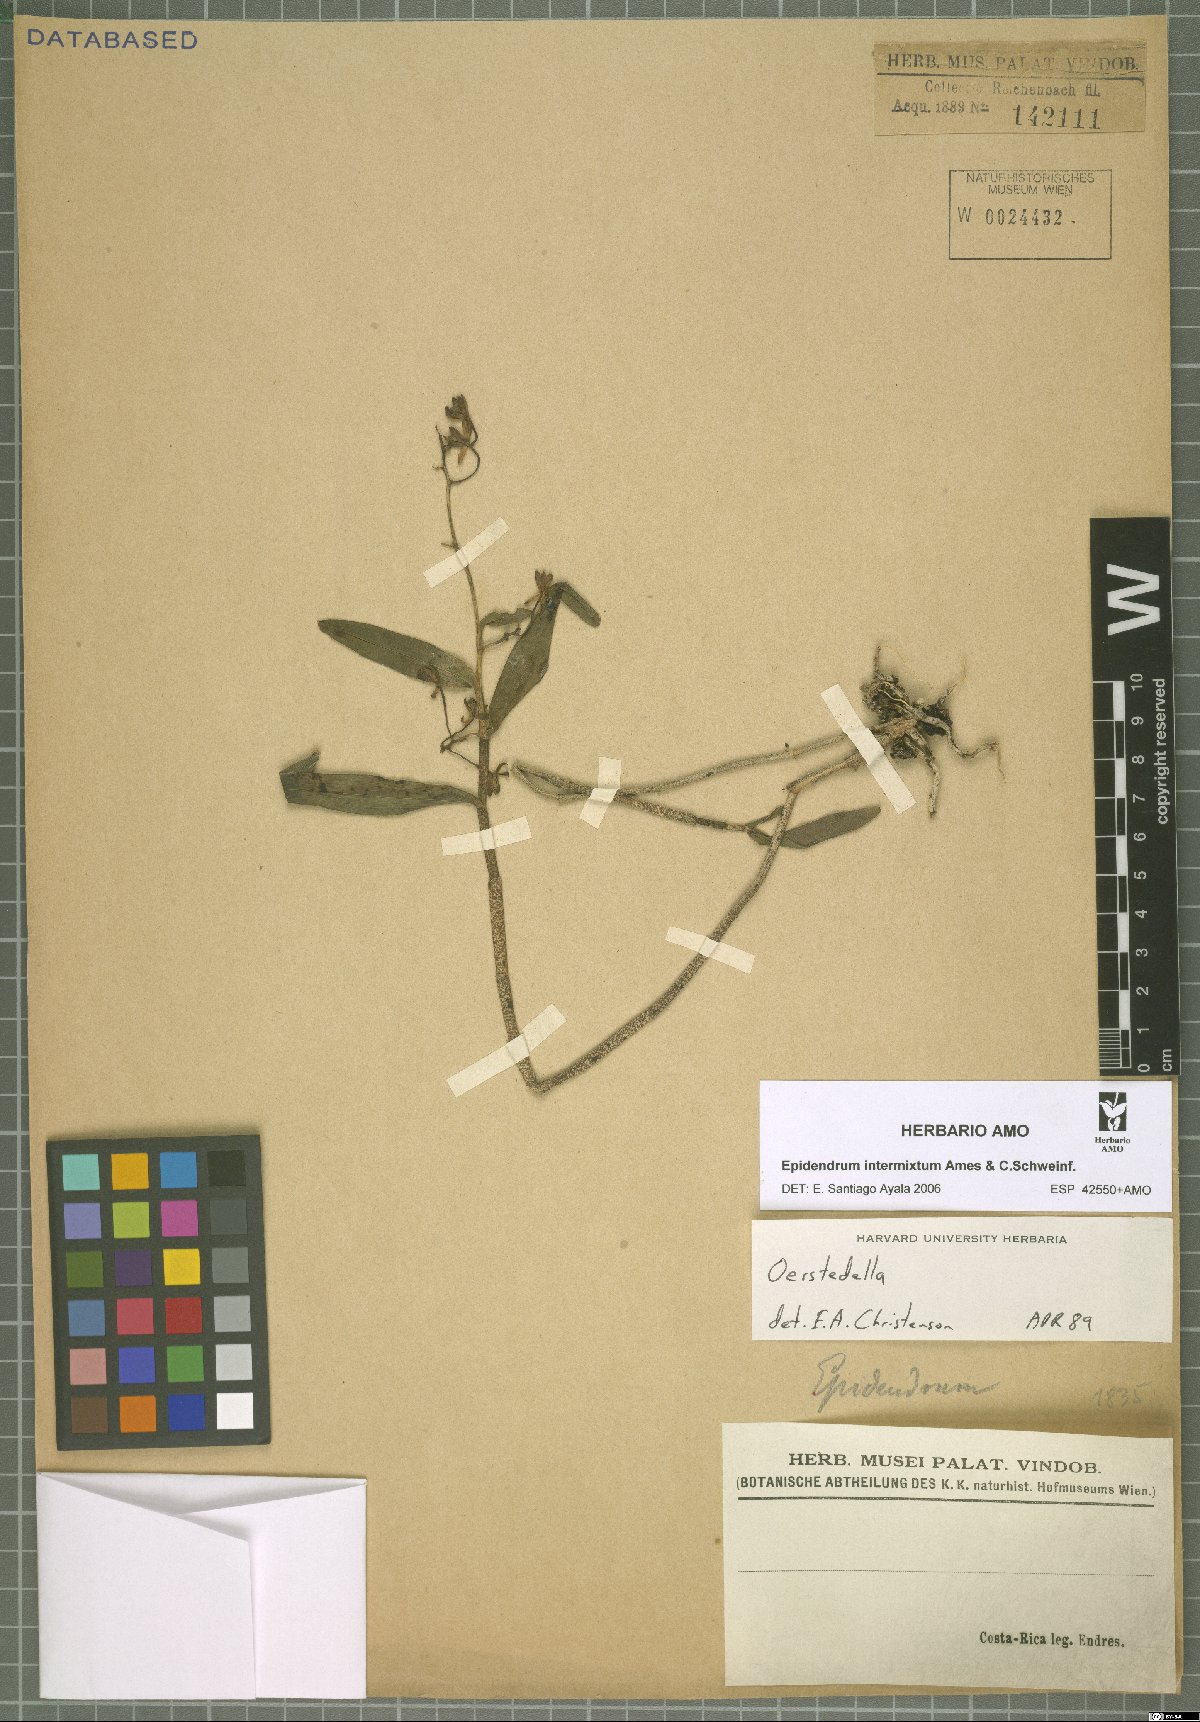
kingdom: Plantae
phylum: Tracheophyta
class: Liliopsida
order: Asparagales
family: Orchidaceae
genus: Epidendrum
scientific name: Epidendrum intermixtum
